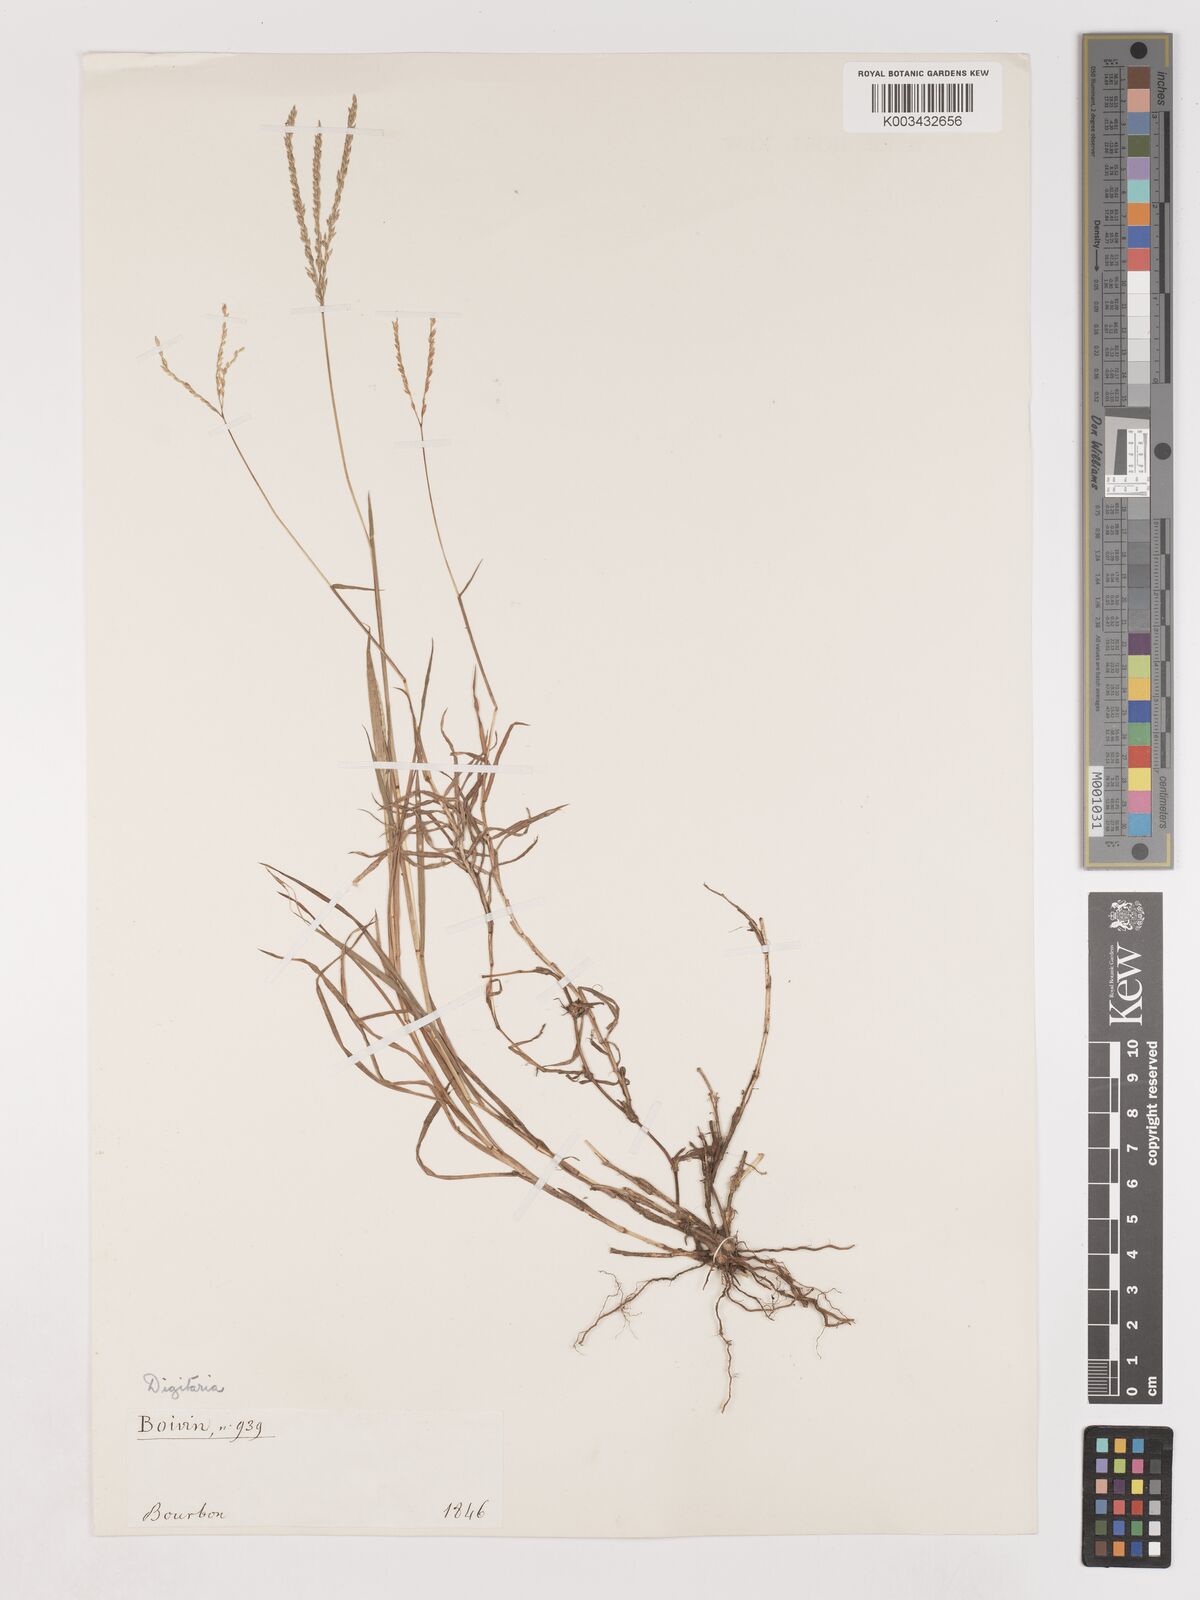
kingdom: Plantae
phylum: Tracheophyta
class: Liliopsida
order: Poales
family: Poaceae
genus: Digitaria
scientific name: Digitaria didactyla
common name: Blue couch
